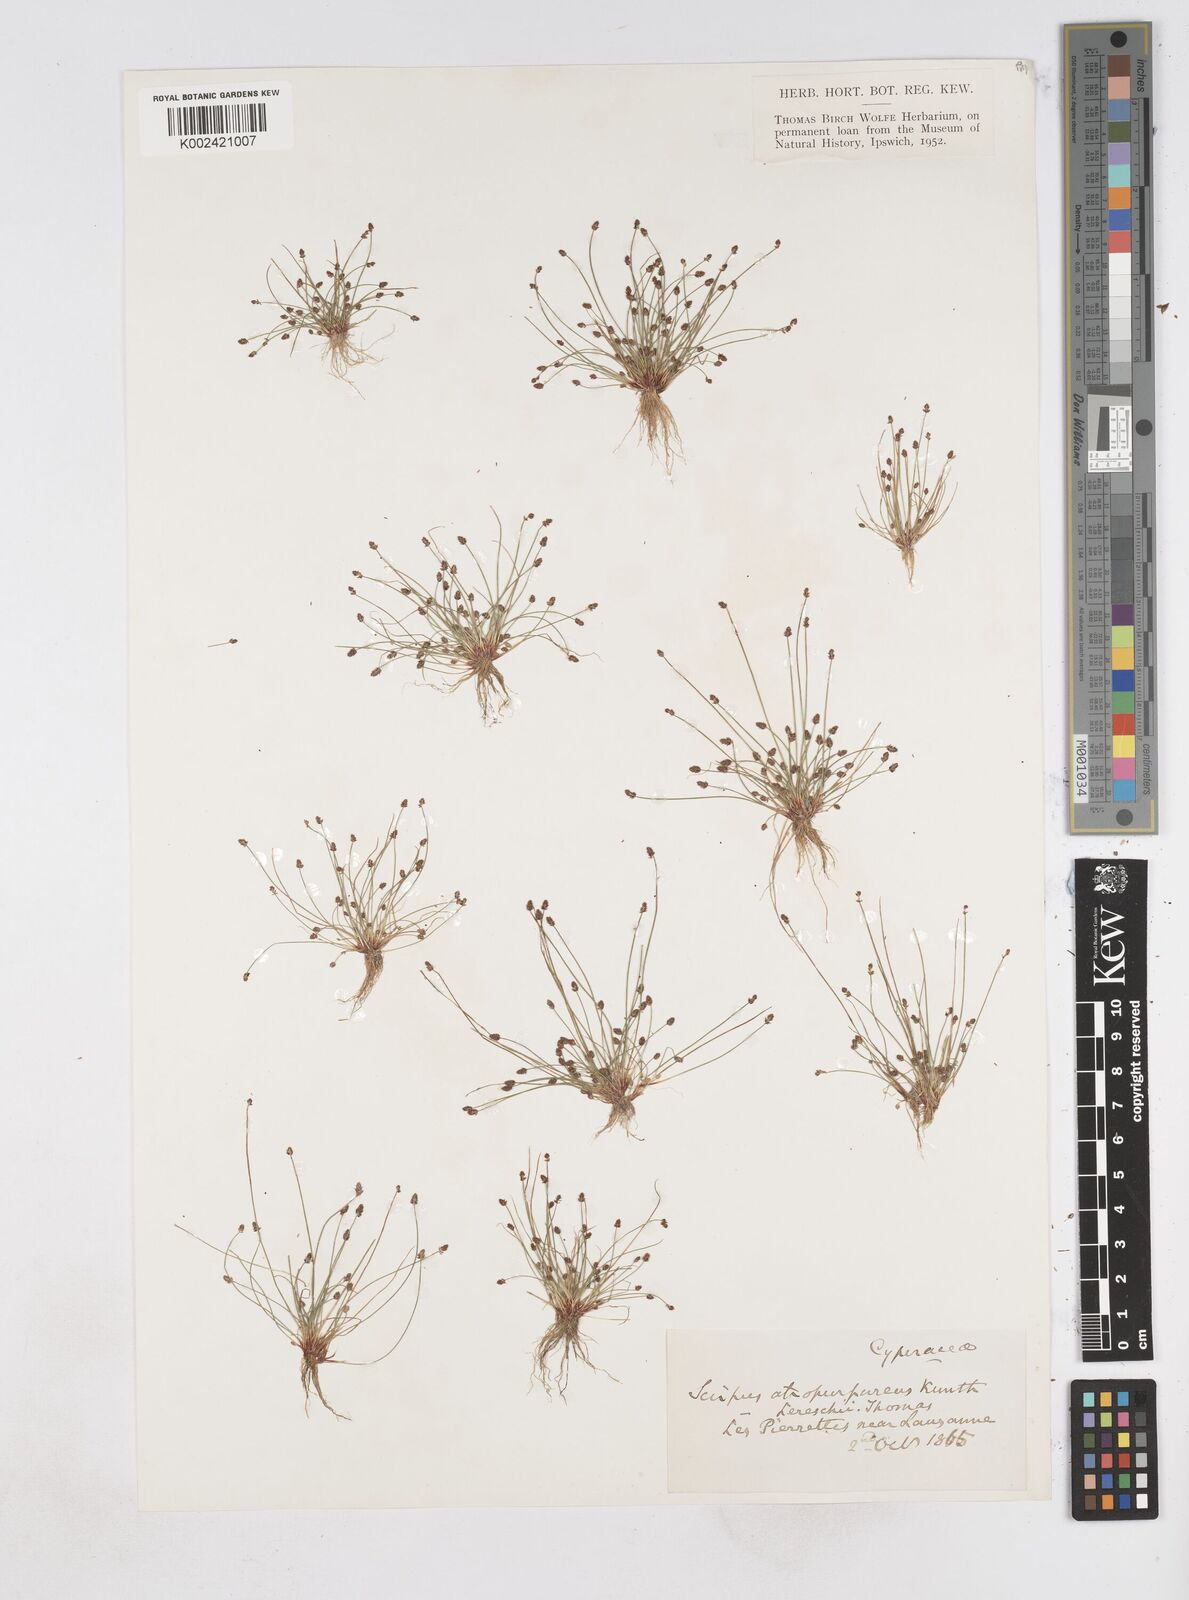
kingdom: Plantae
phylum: Tracheophyta
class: Liliopsida
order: Poales
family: Cyperaceae
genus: Eleocharis
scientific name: Eleocharis atropurpurea
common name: Purple spikerush
